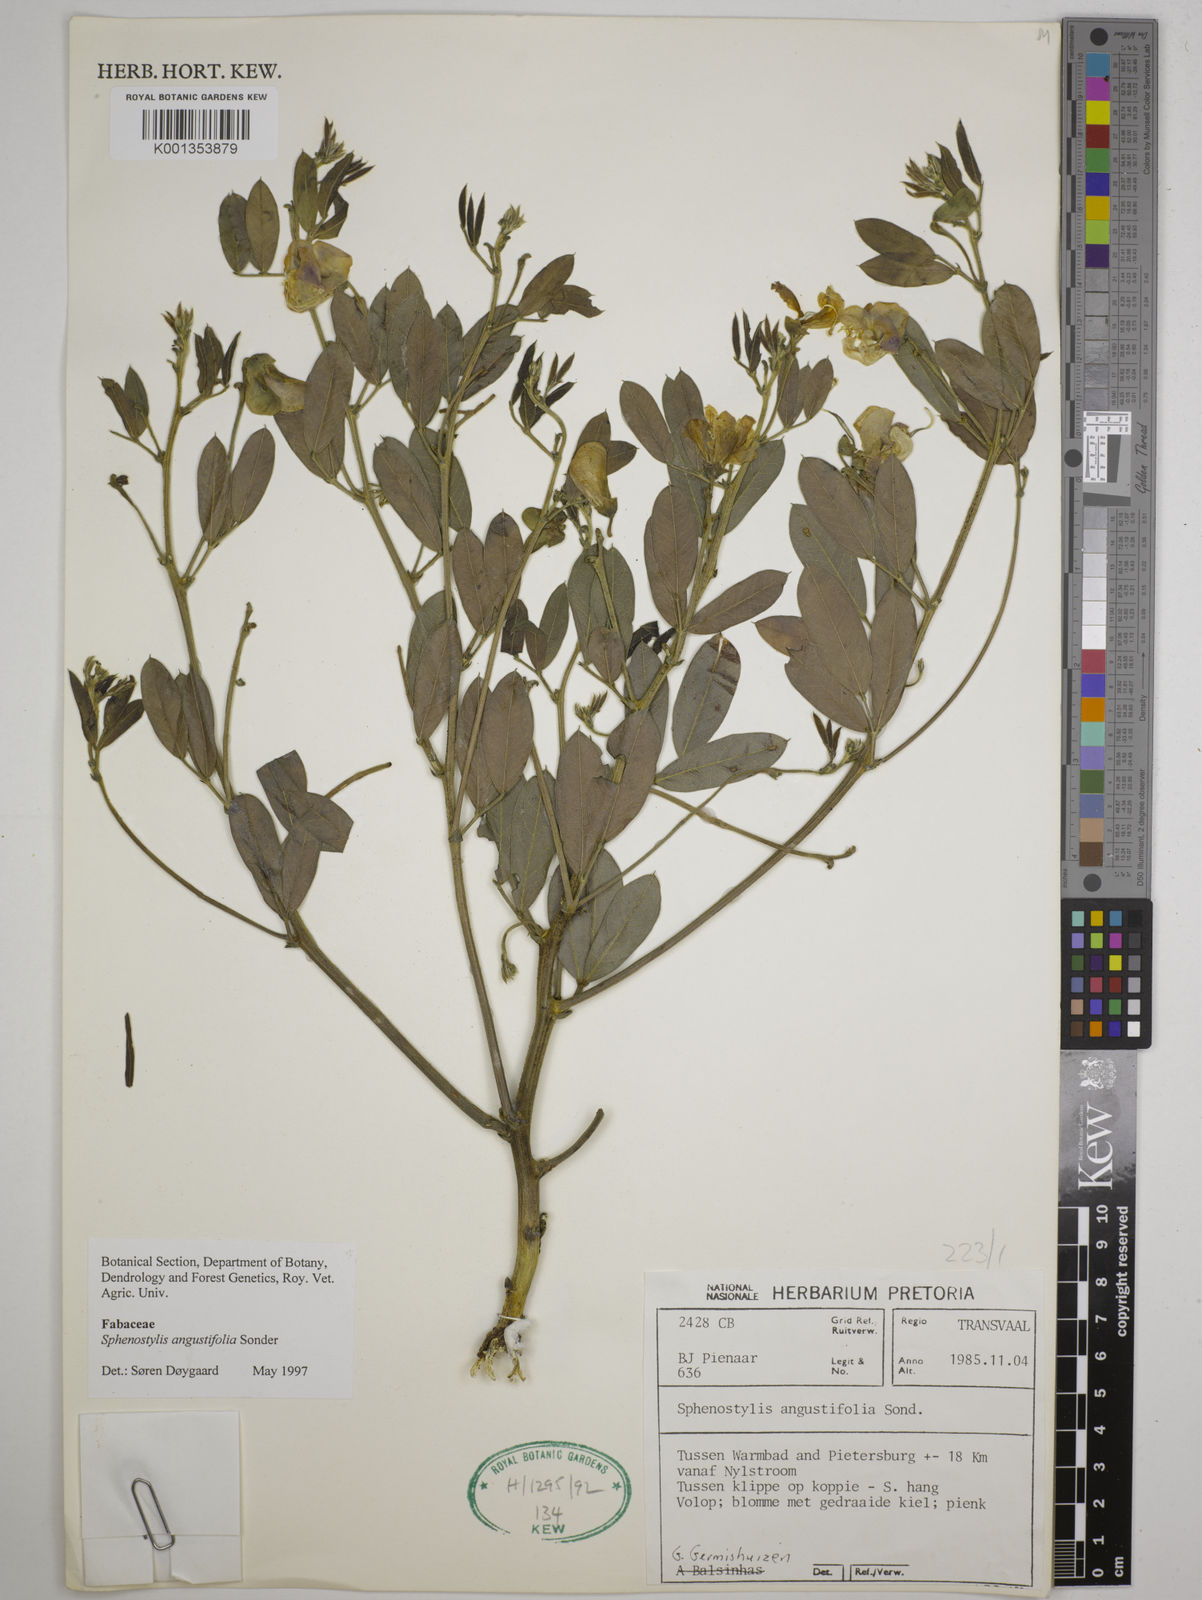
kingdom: Plantae
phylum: Tracheophyta
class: Magnoliopsida
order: Fabales
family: Fabaceae
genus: Sphenostylis
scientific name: Sphenostylis angustifolia
